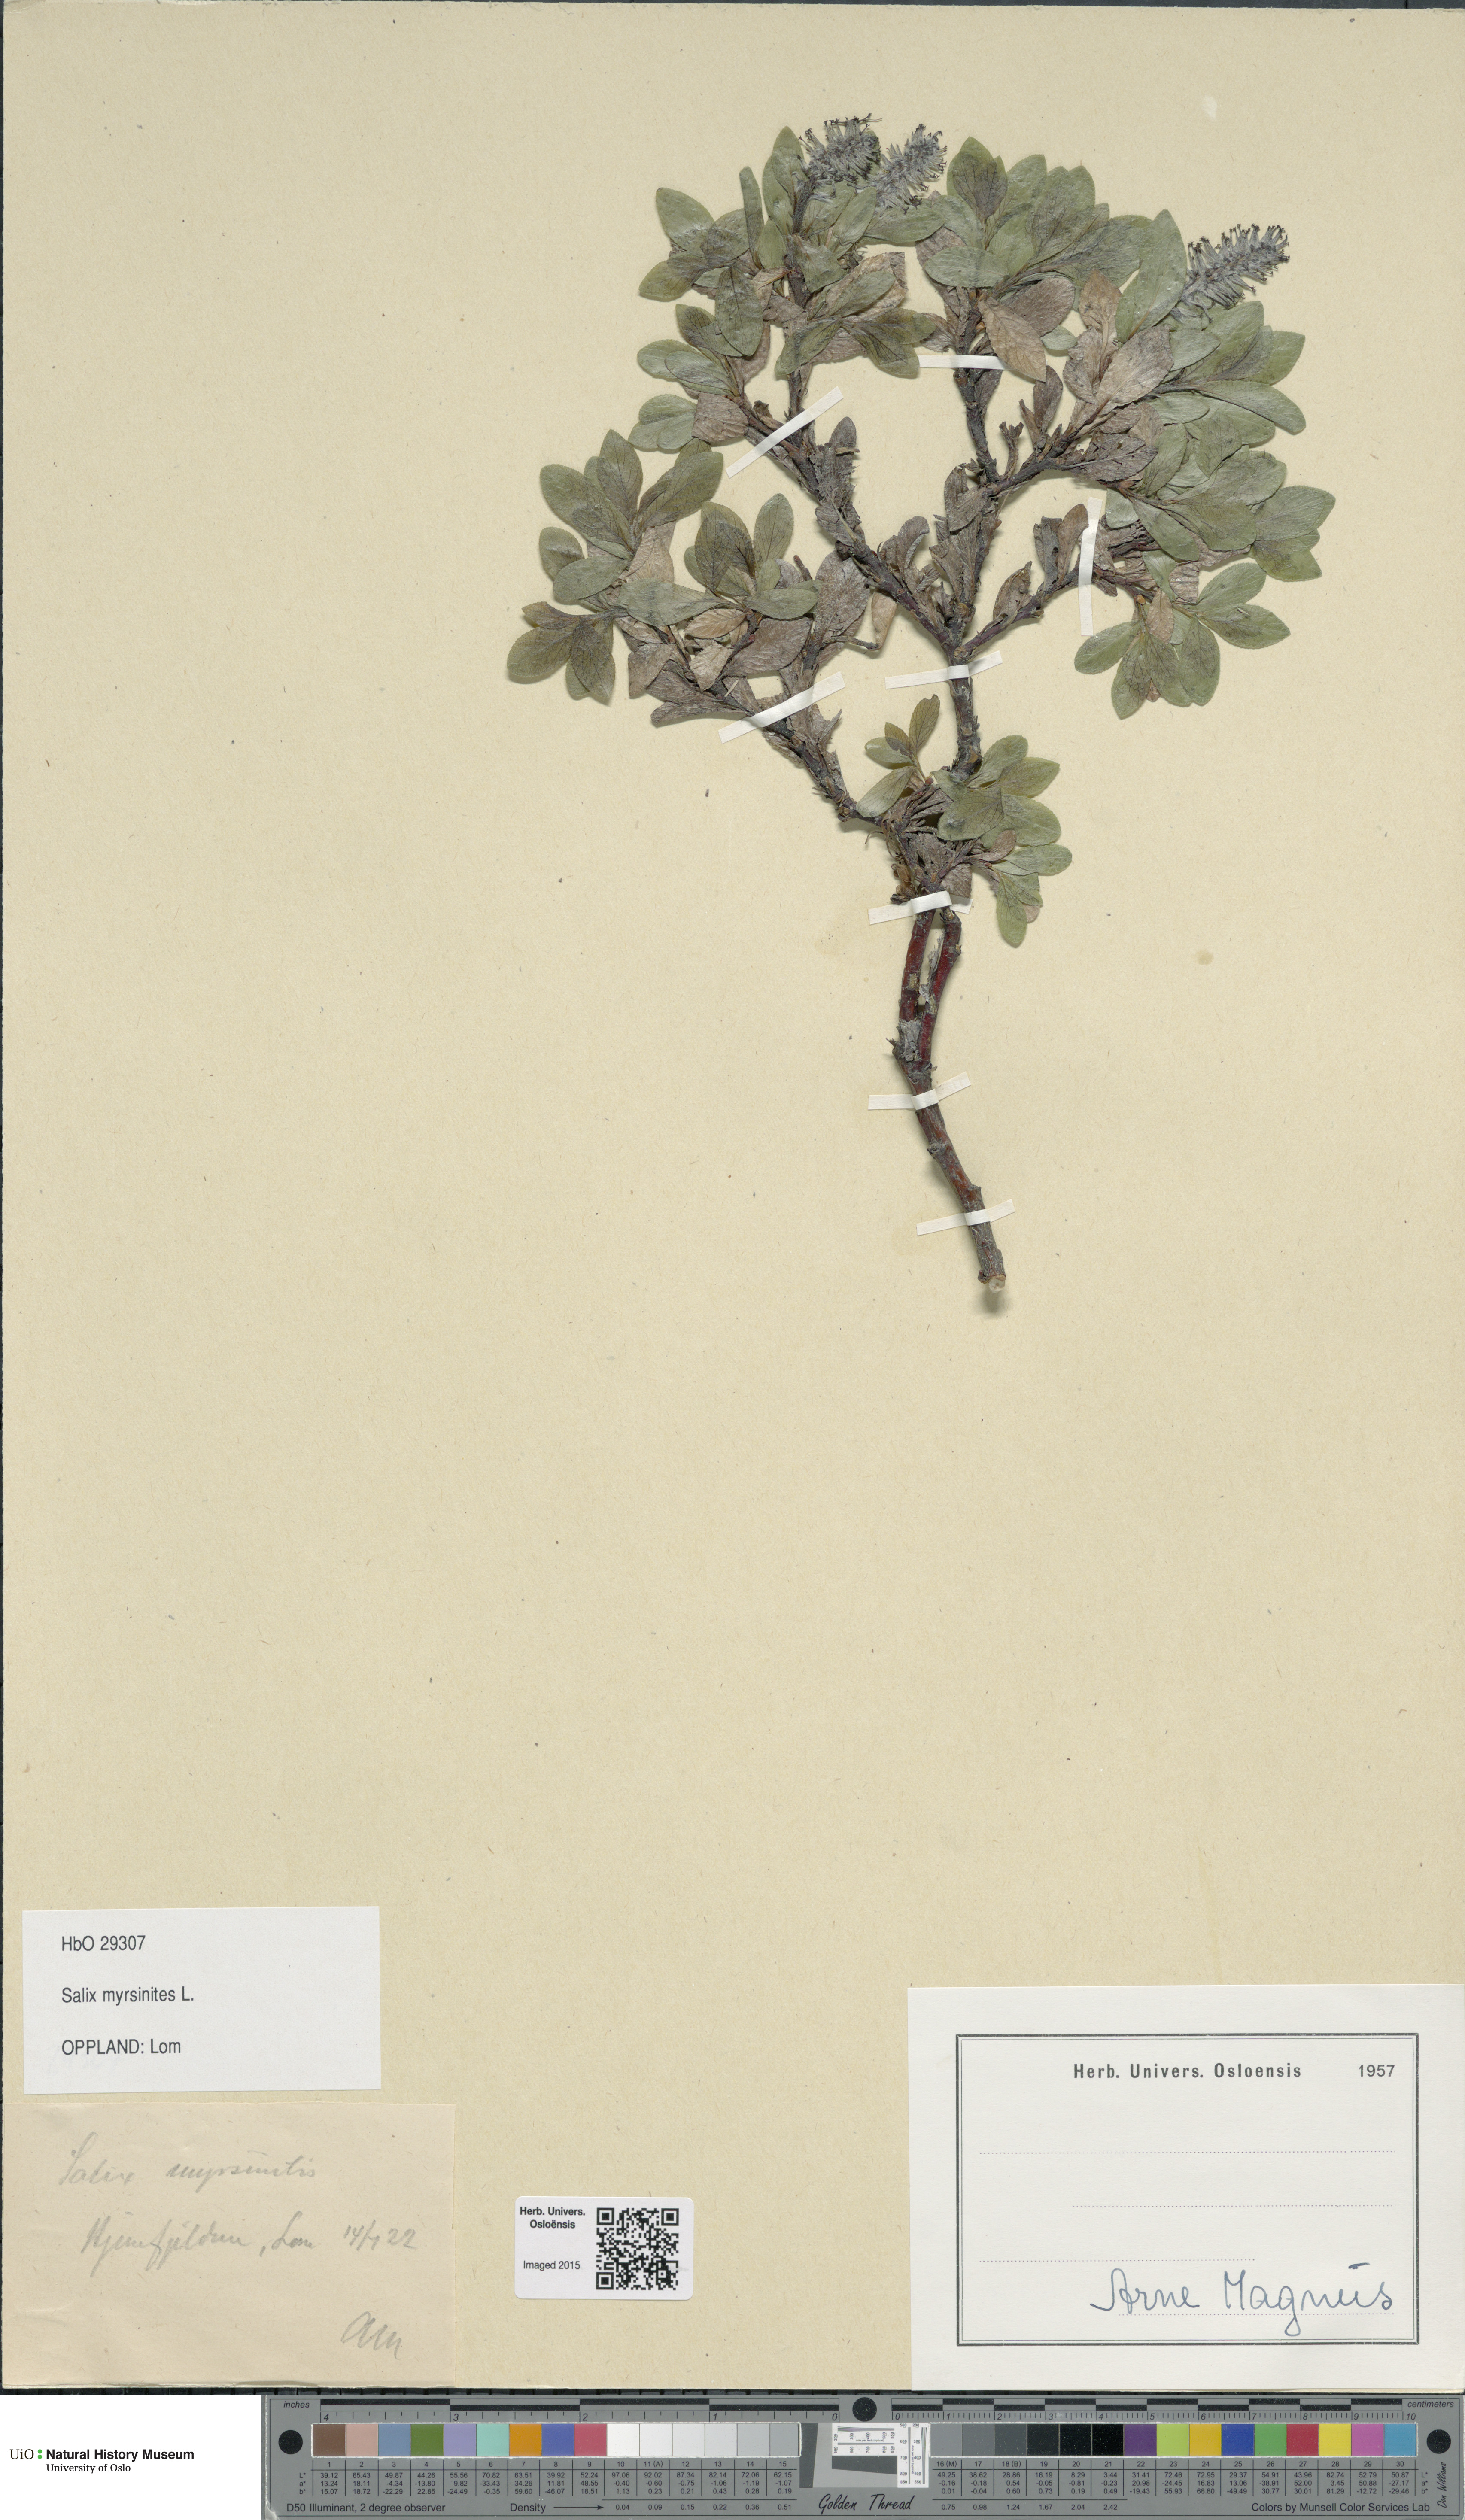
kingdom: Plantae
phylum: Tracheophyta
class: Magnoliopsida
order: Malpighiales
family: Salicaceae
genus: Salix
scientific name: Salix myrsinites
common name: Myrtle willow
